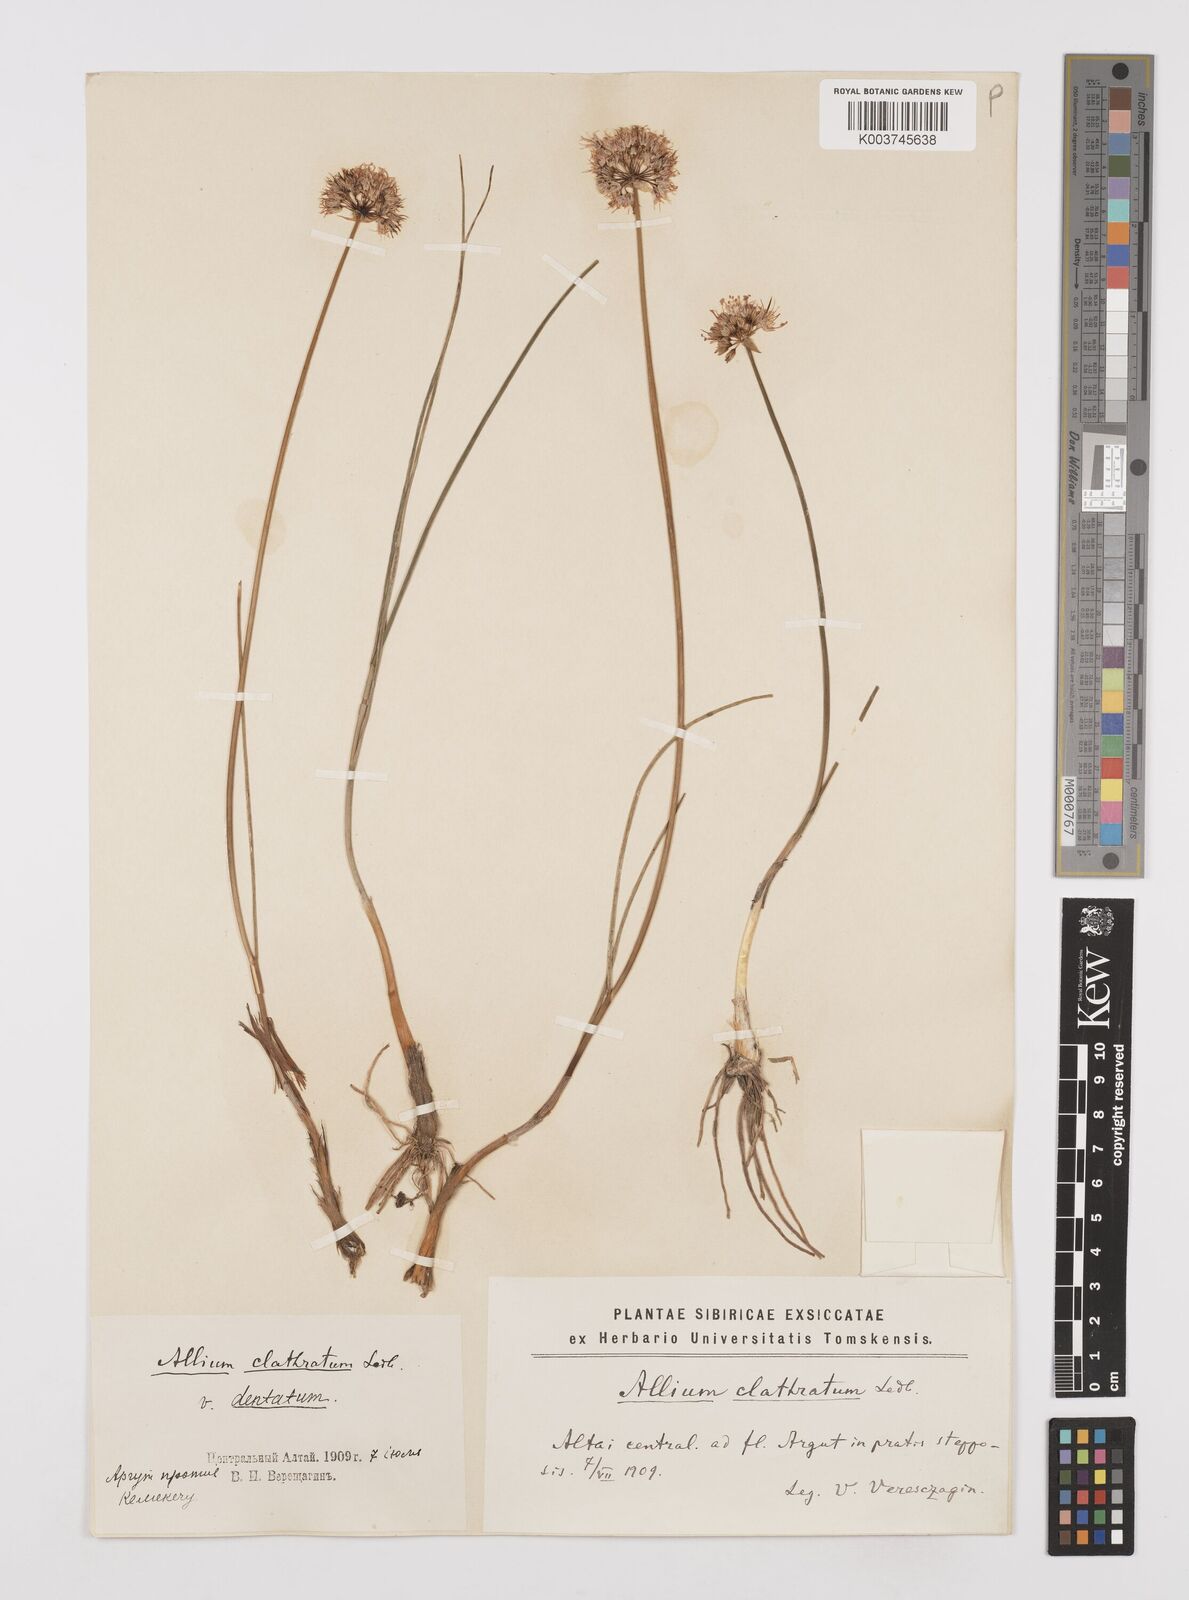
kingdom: Plantae
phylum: Tracheophyta
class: Liliopsida
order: Asparagales
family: Amaryllidaceae
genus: Allium
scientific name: Allium clathratum
